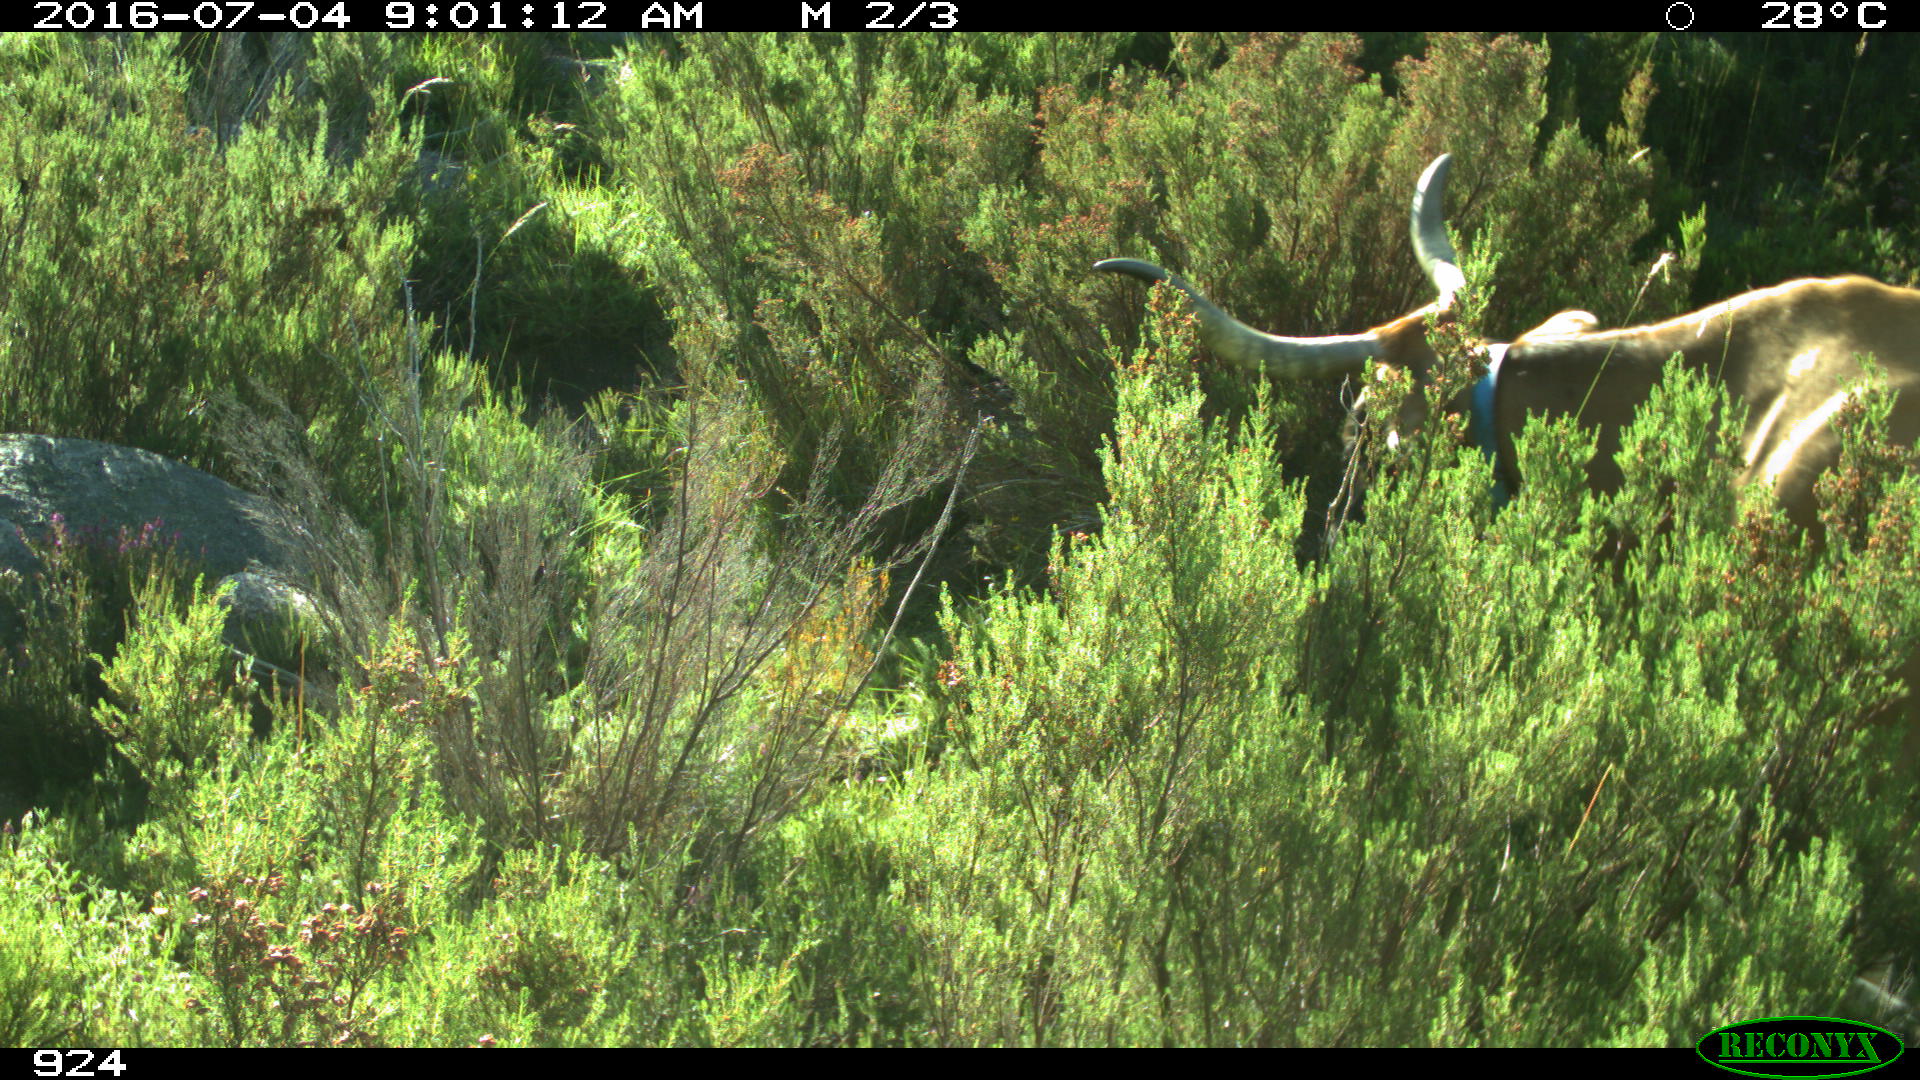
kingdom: Animalia
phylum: Chordata
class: Mammalia
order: Artiodactyla
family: Bovidae
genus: Bos
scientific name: Bos taurus
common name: Domesticated cattle
